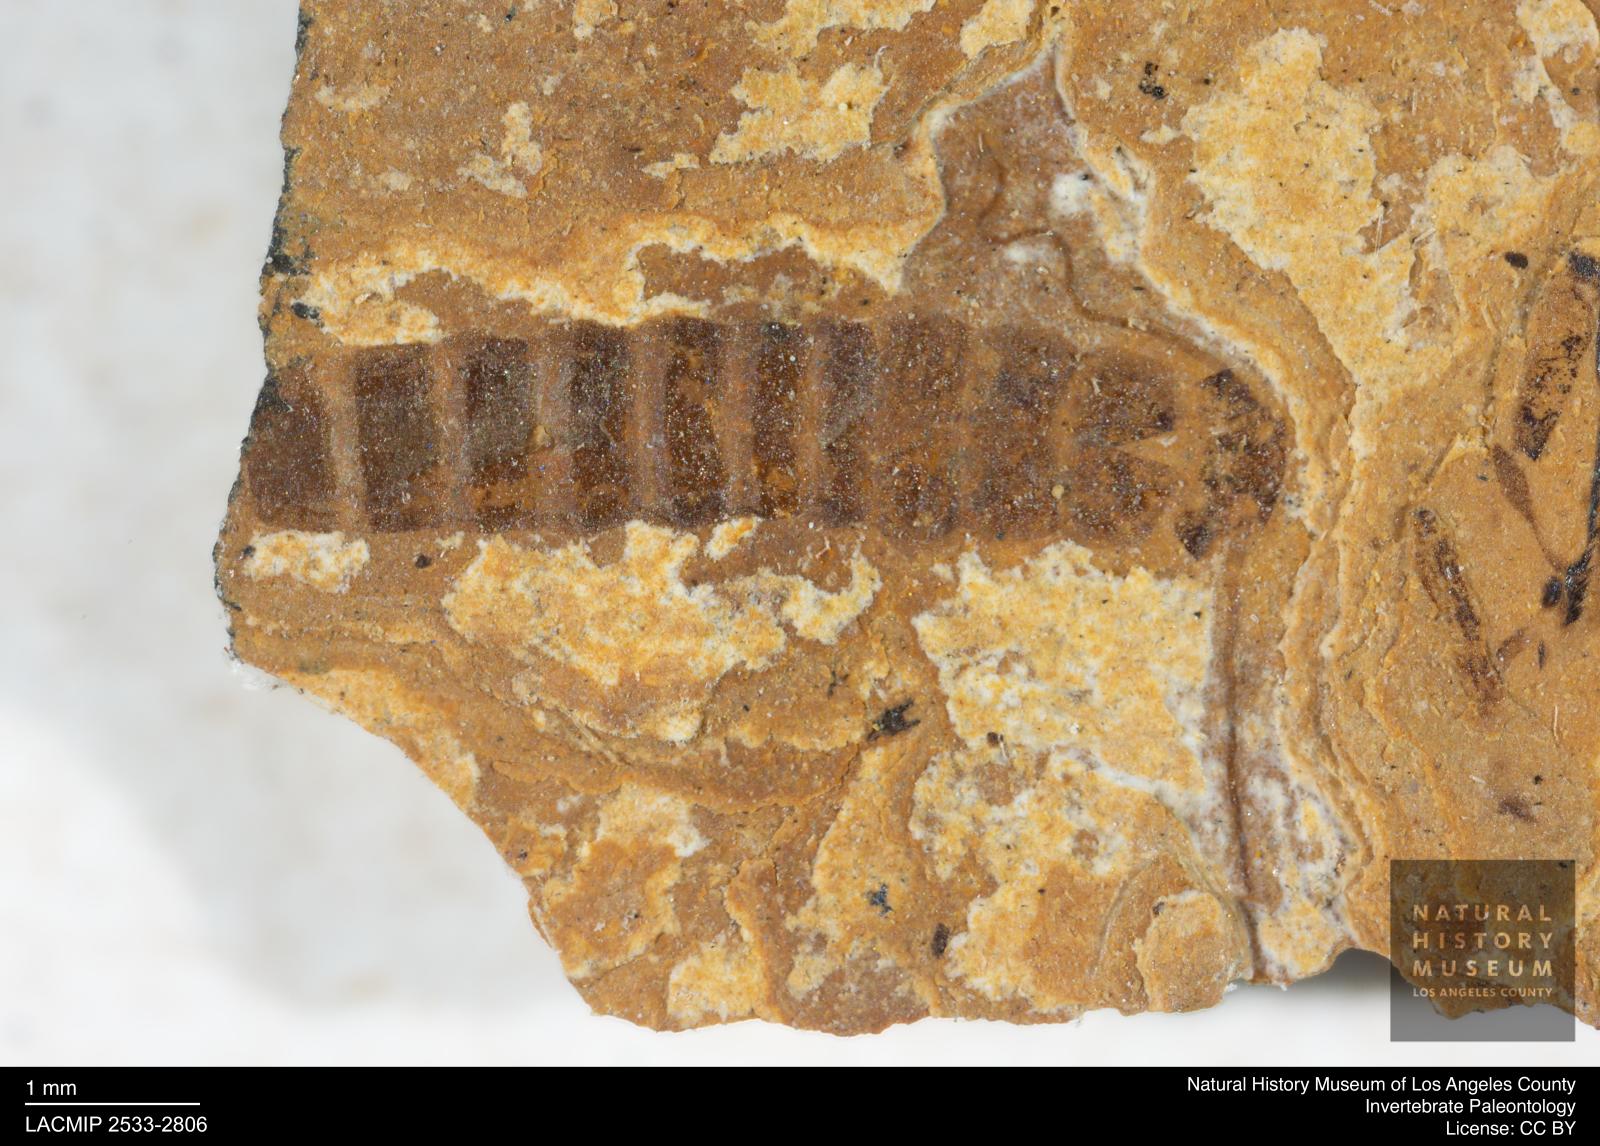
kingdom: Animalia
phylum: Arthropoda
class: Insecta
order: Plecoptera
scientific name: Plecoptera
